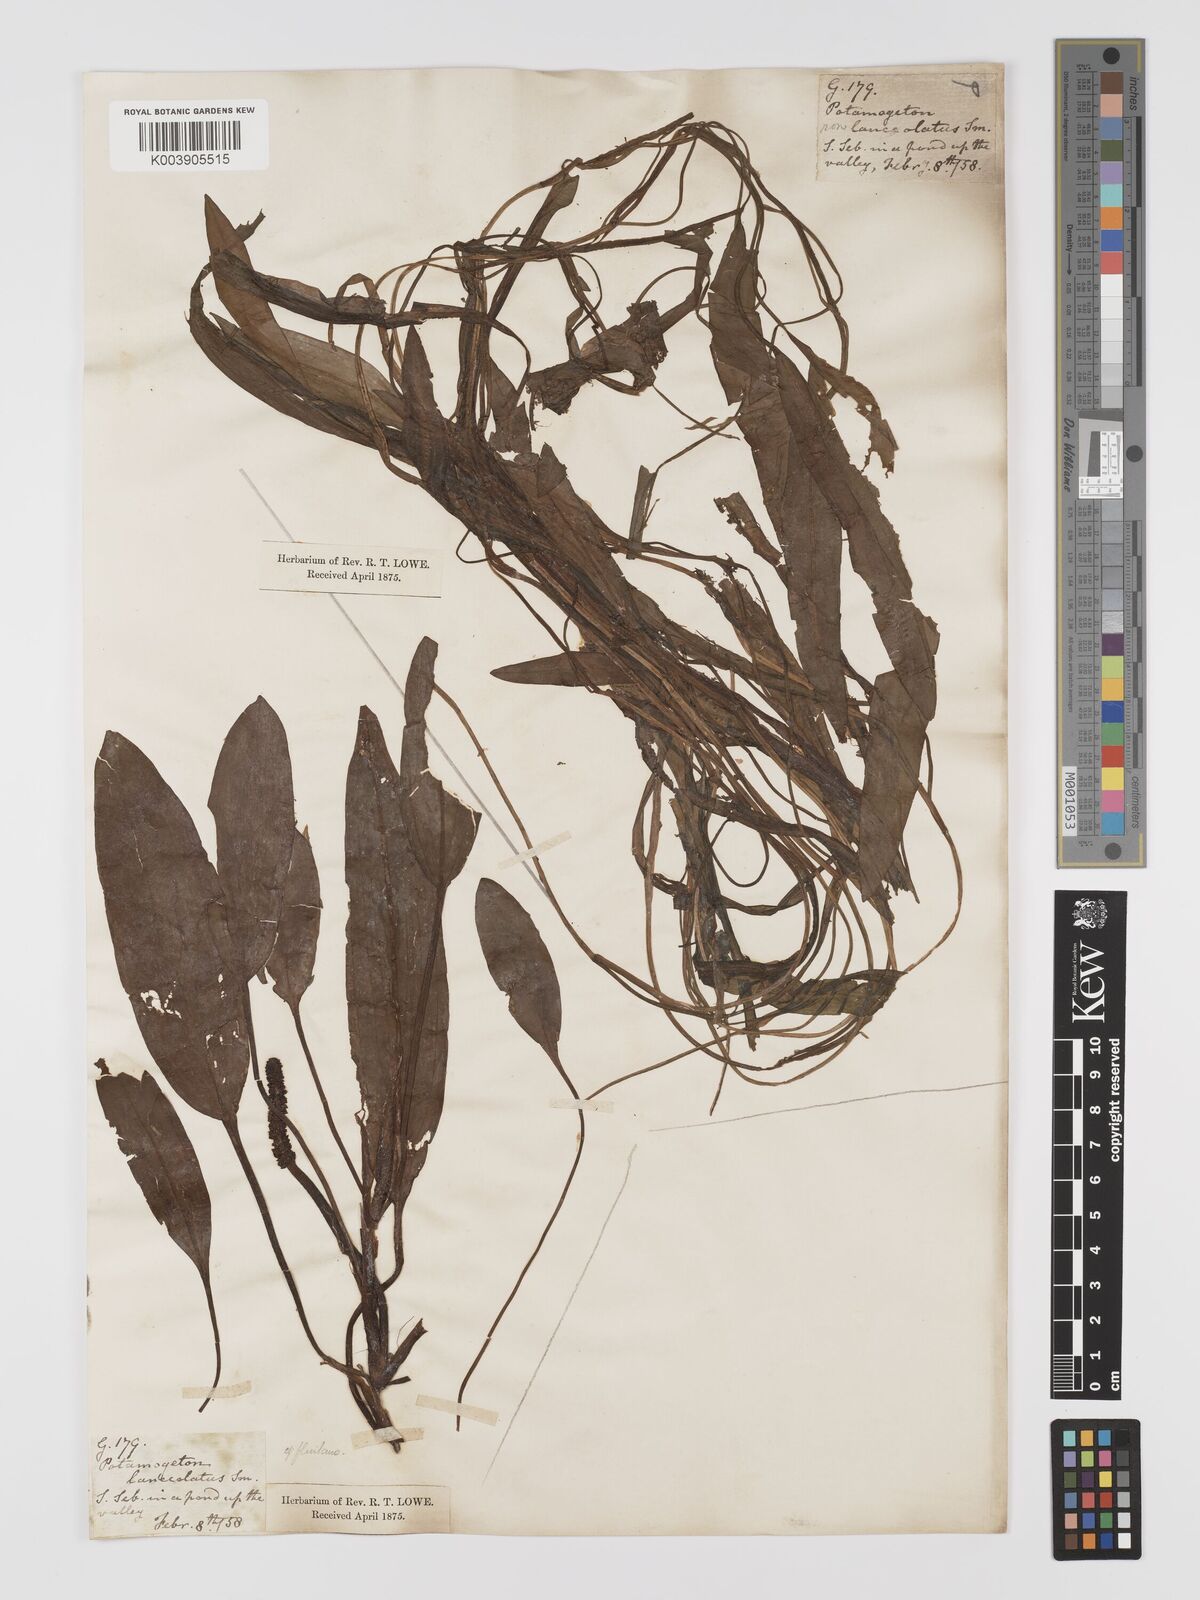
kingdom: Plantae
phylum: Tracheophyta
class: Liliopsida
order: Alismatales
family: Potamogetonaceae
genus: Potamogeton
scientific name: Potamogeton nodosus
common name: Loddon pondweed
